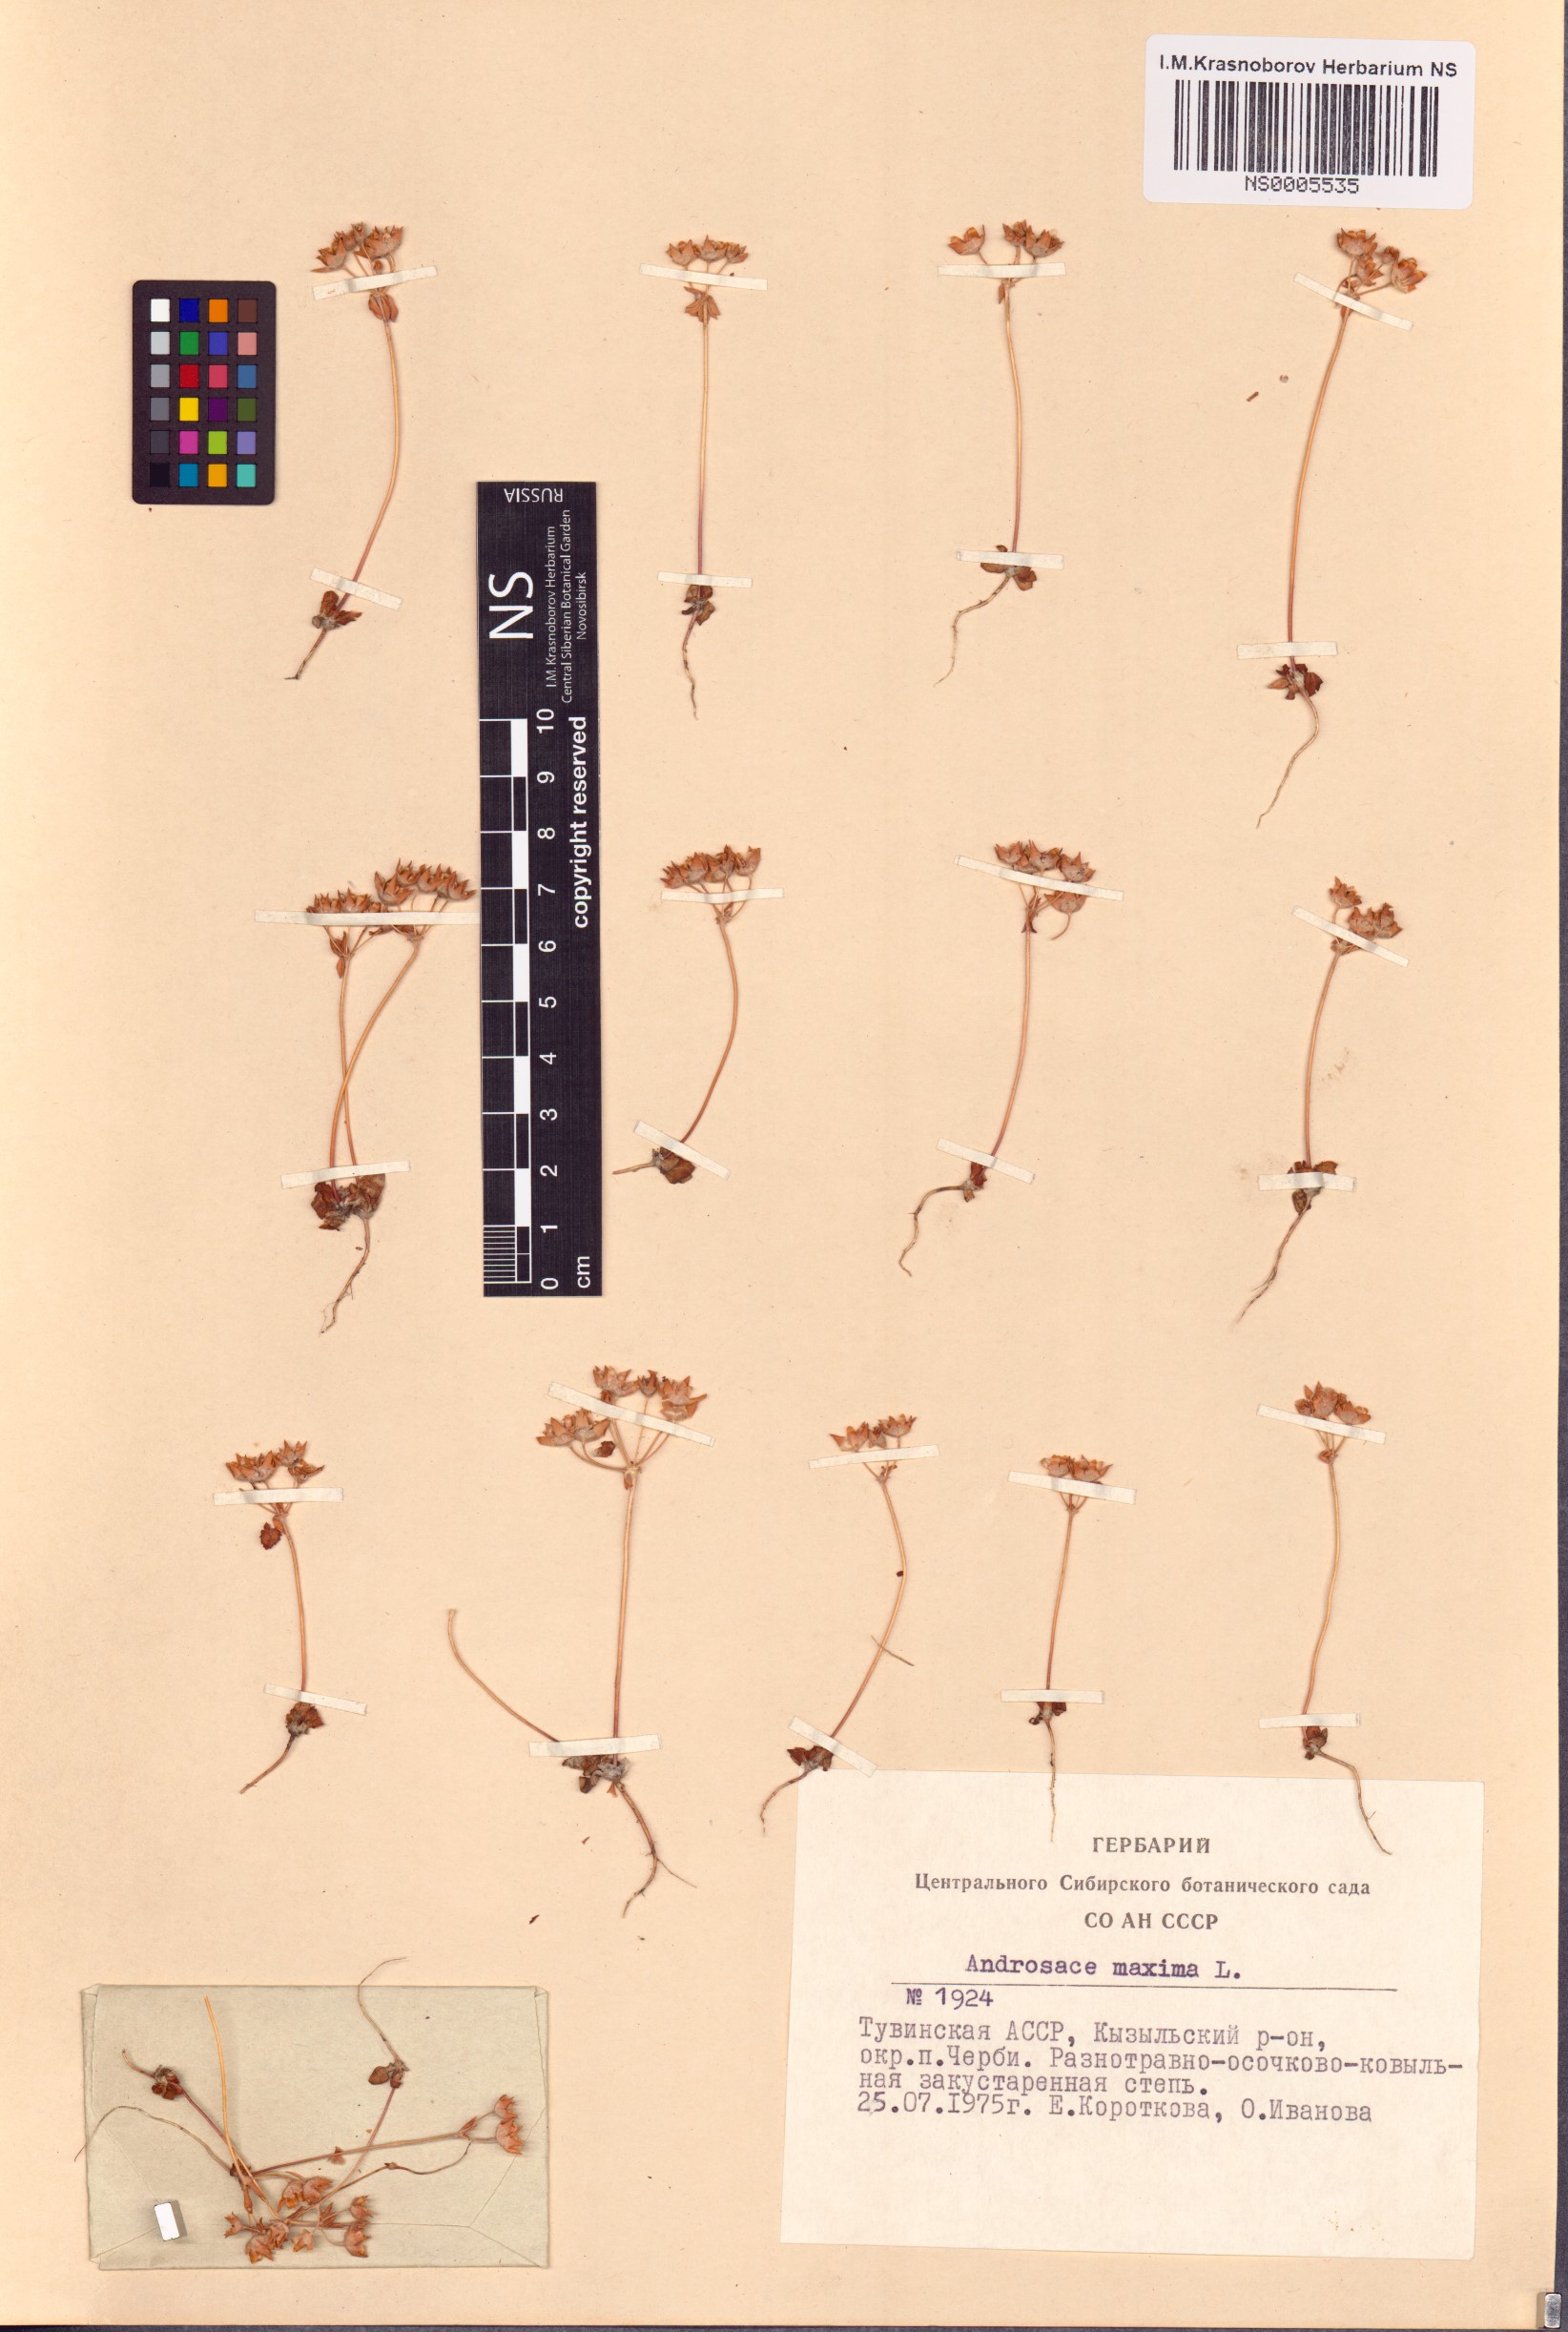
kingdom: Plantae
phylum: Tracheophyta
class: Magnoliopsida
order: Ericales
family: Primulaceae
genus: Androsace
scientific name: Androsace maxima
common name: Annual androsace
